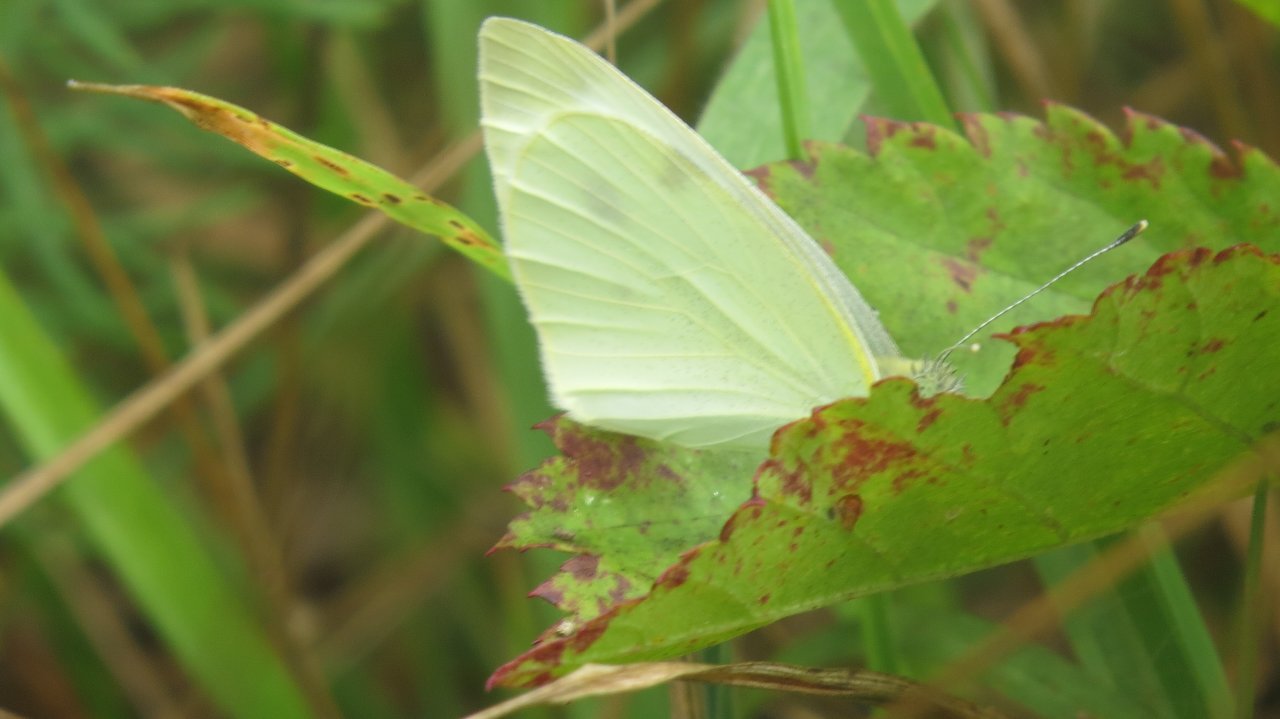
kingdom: Animalia
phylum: Arthropoda
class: Insecta
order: Lepidoptera
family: Pieridae
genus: Pieris
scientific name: Pieris rapae
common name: Cabbage White
